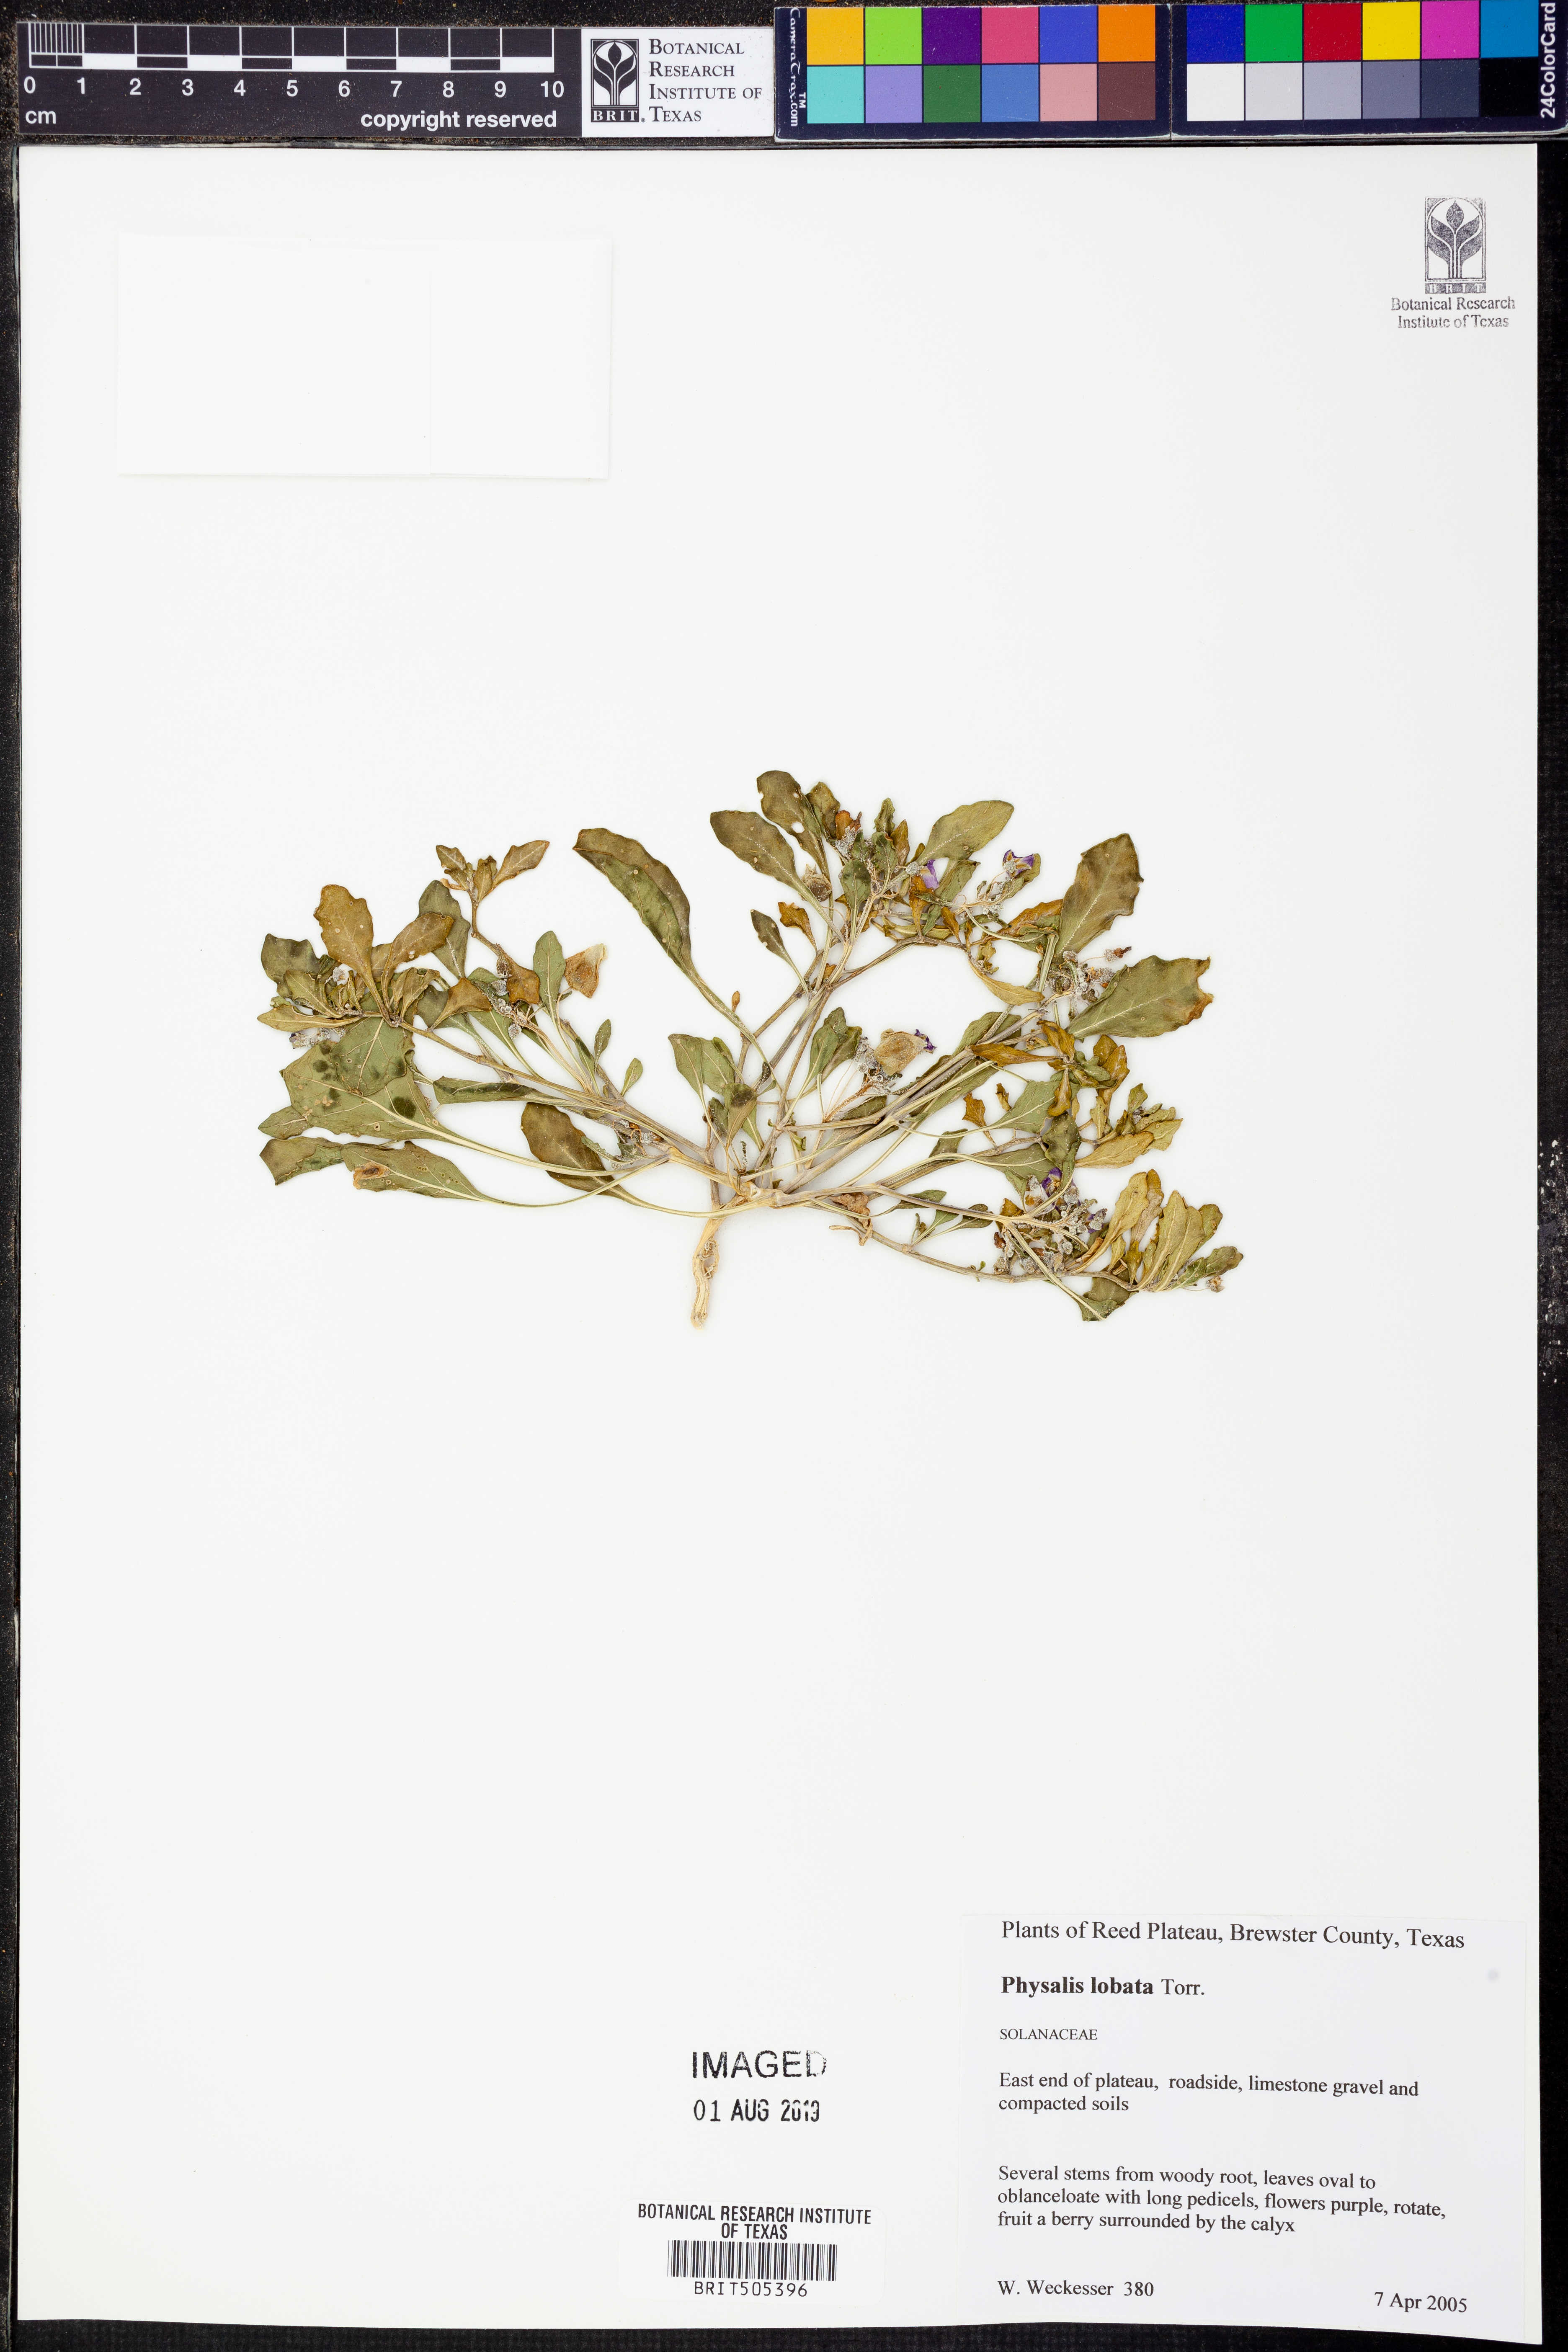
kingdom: Plantae
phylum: Tracheophyta
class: Magnoliopsida
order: Solanales
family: Solanaceae
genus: Quincula
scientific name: Quincula lobata
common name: Purple-ground-cherry
